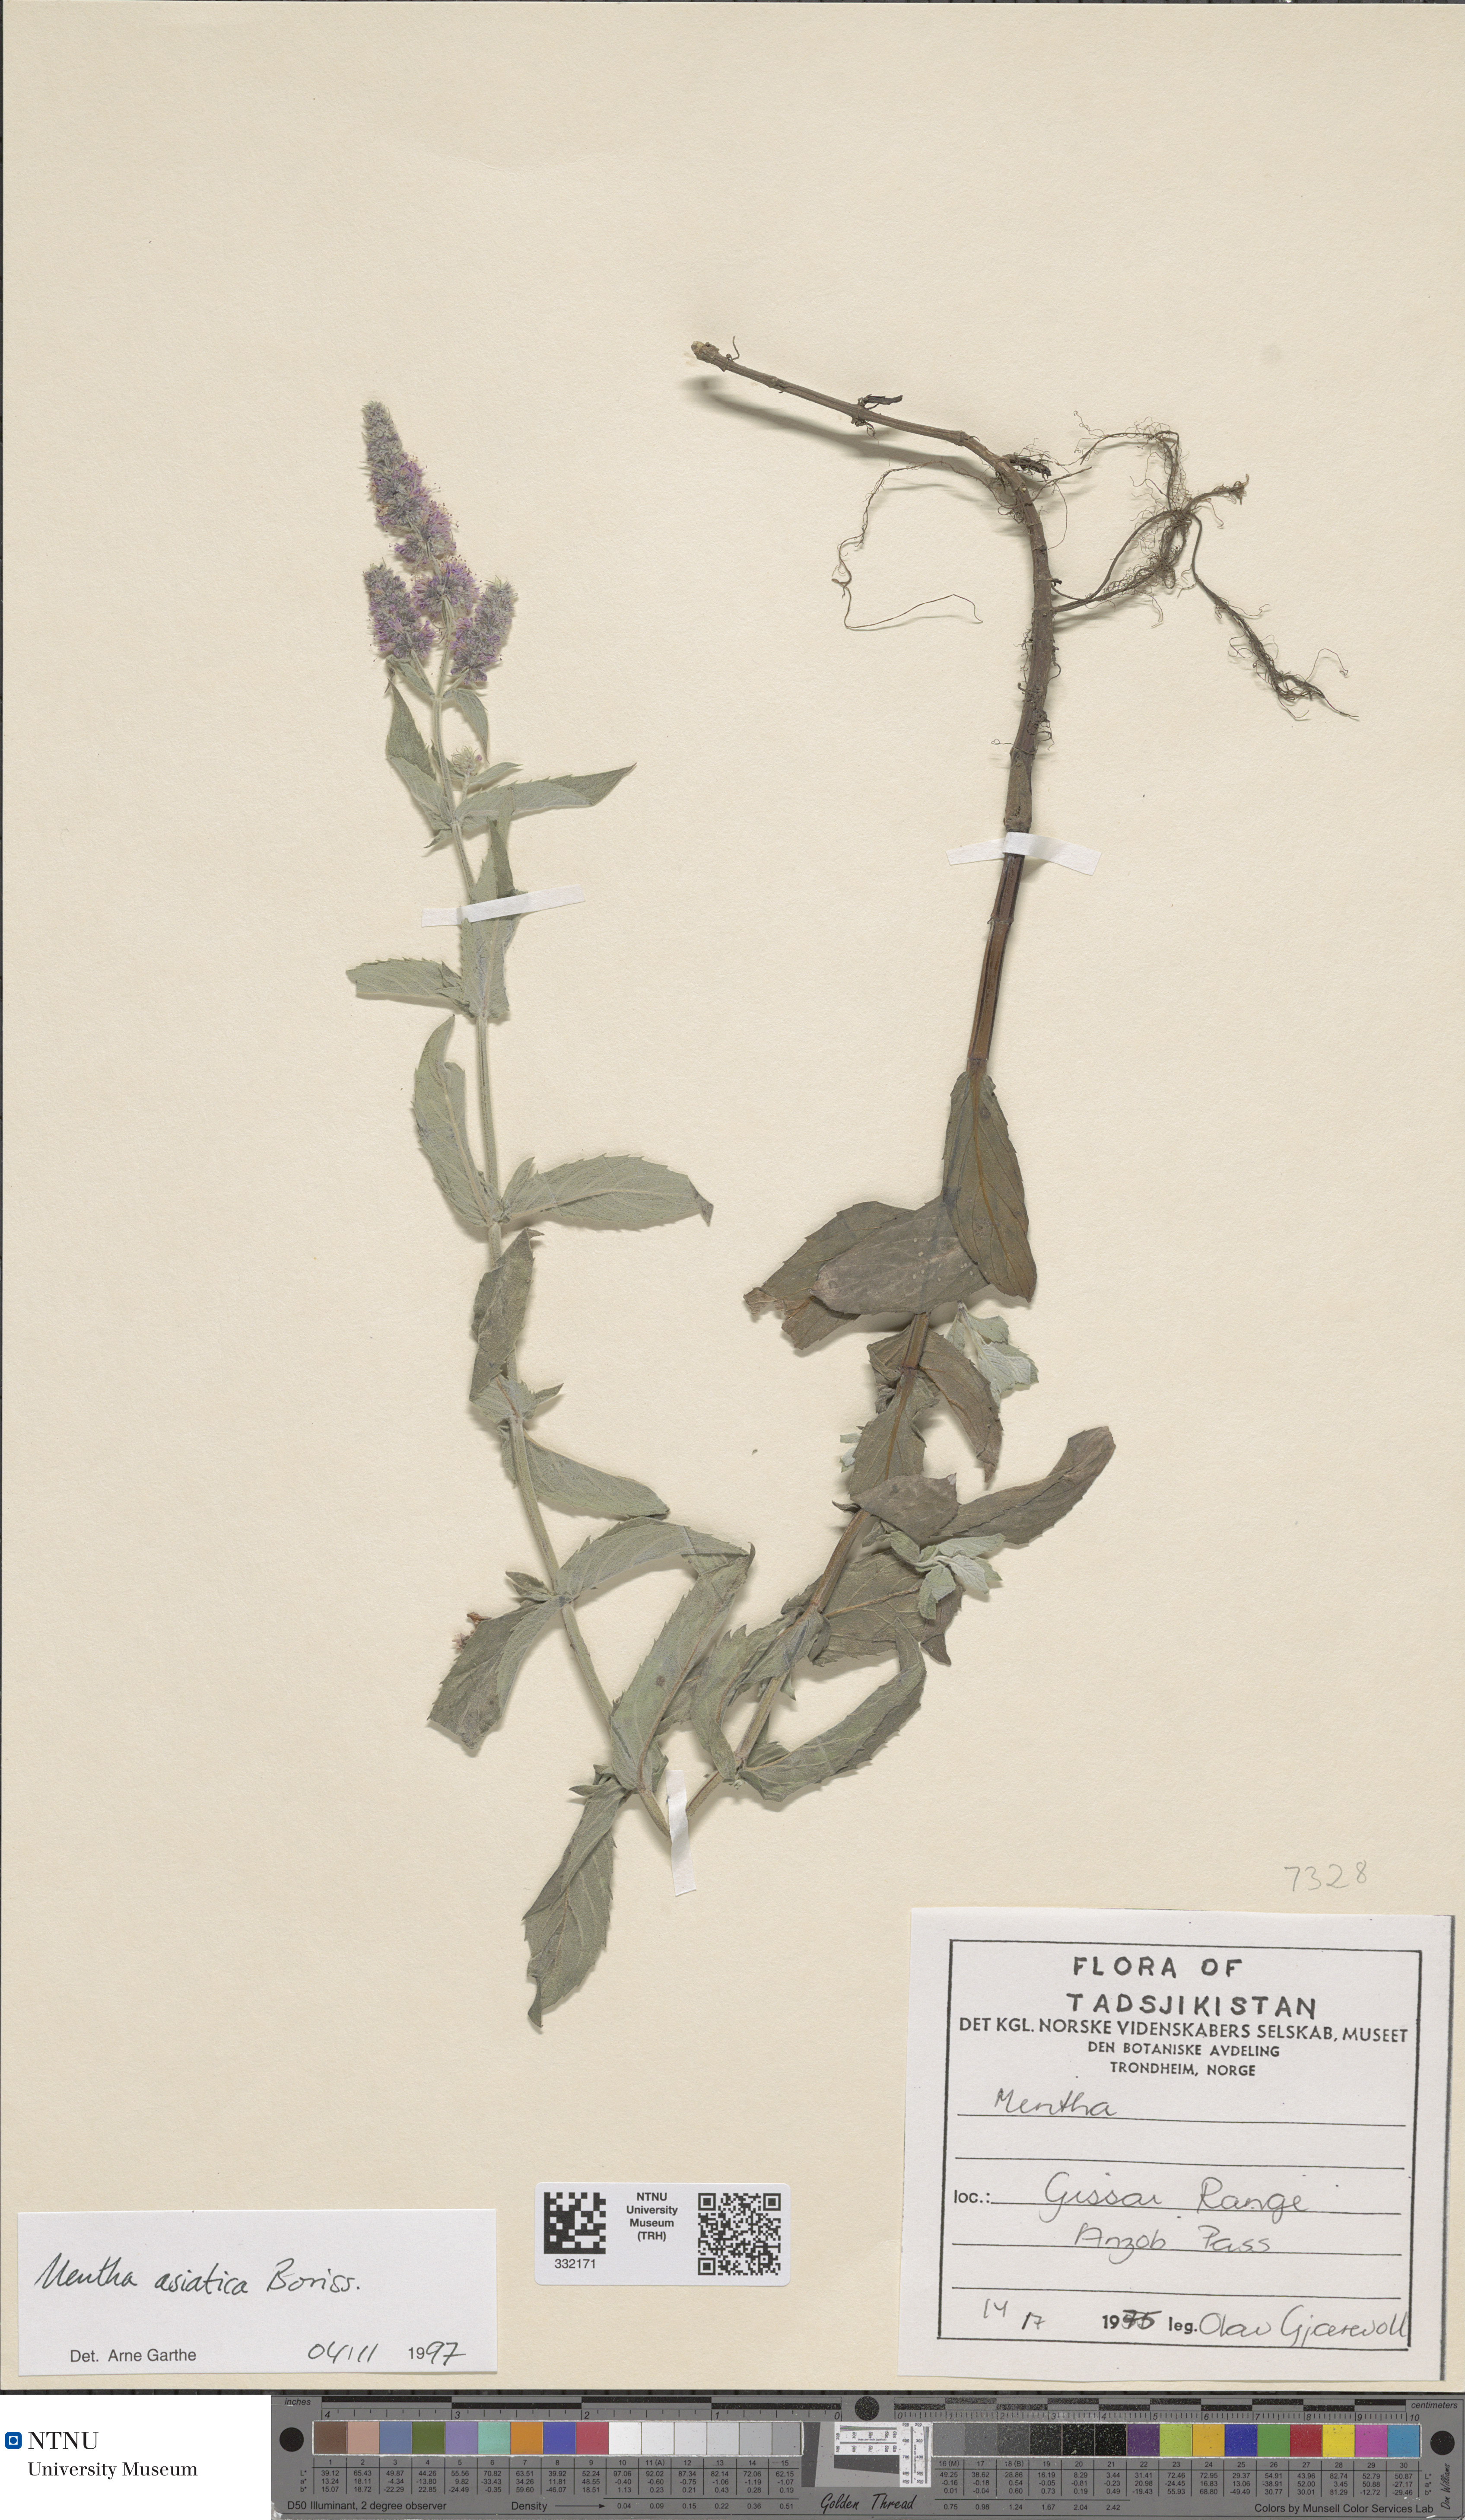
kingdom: Plantae
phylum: Tracheophyta
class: Magnoliopsida
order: Lamiales
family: Lamiaceae
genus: Mentha
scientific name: Mentha longifolia
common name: Horse mint
